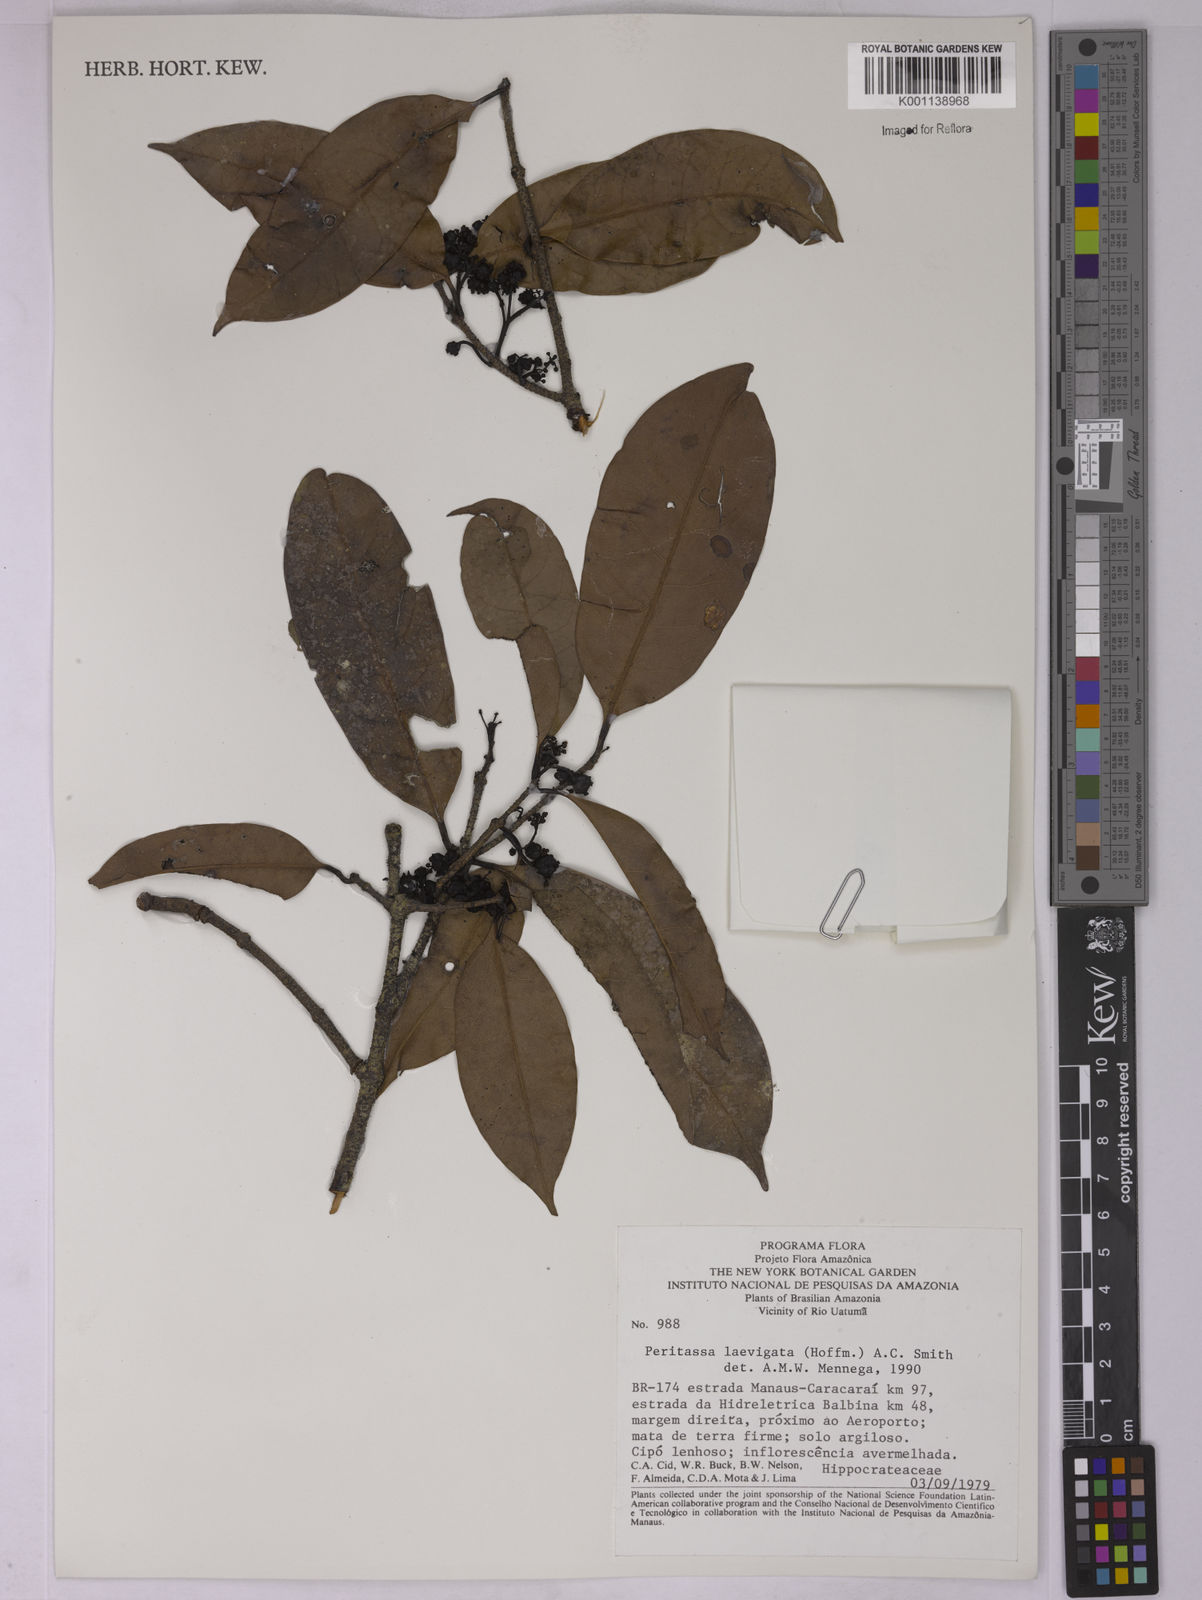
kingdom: Plantae
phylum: Tracheophyta
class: Magnoliopsida
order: Celastrales
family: Celastraceae
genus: Peritassa
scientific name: Peritassa laevigata
